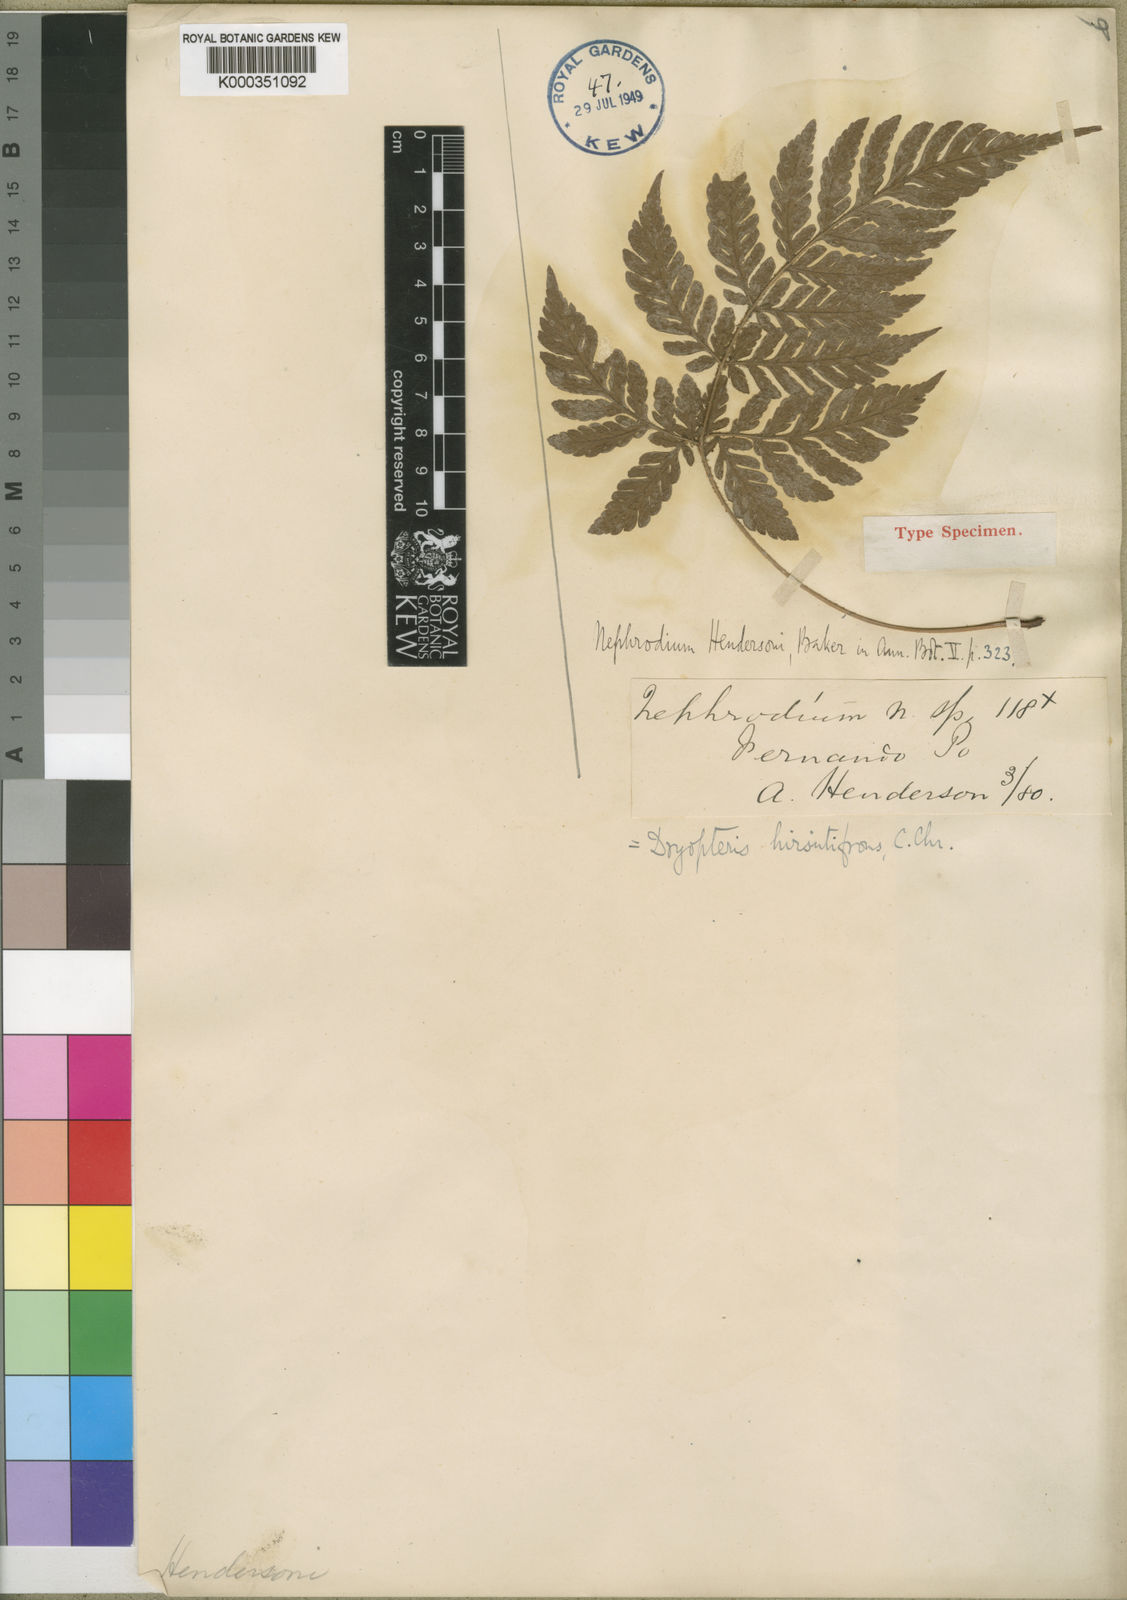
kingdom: Plantae
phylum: Tracheophyta
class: Polypodiopsida
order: Polypodiales
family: Dryopteridaceae
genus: Parapolystichum
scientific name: Parapolystichum barterianum
